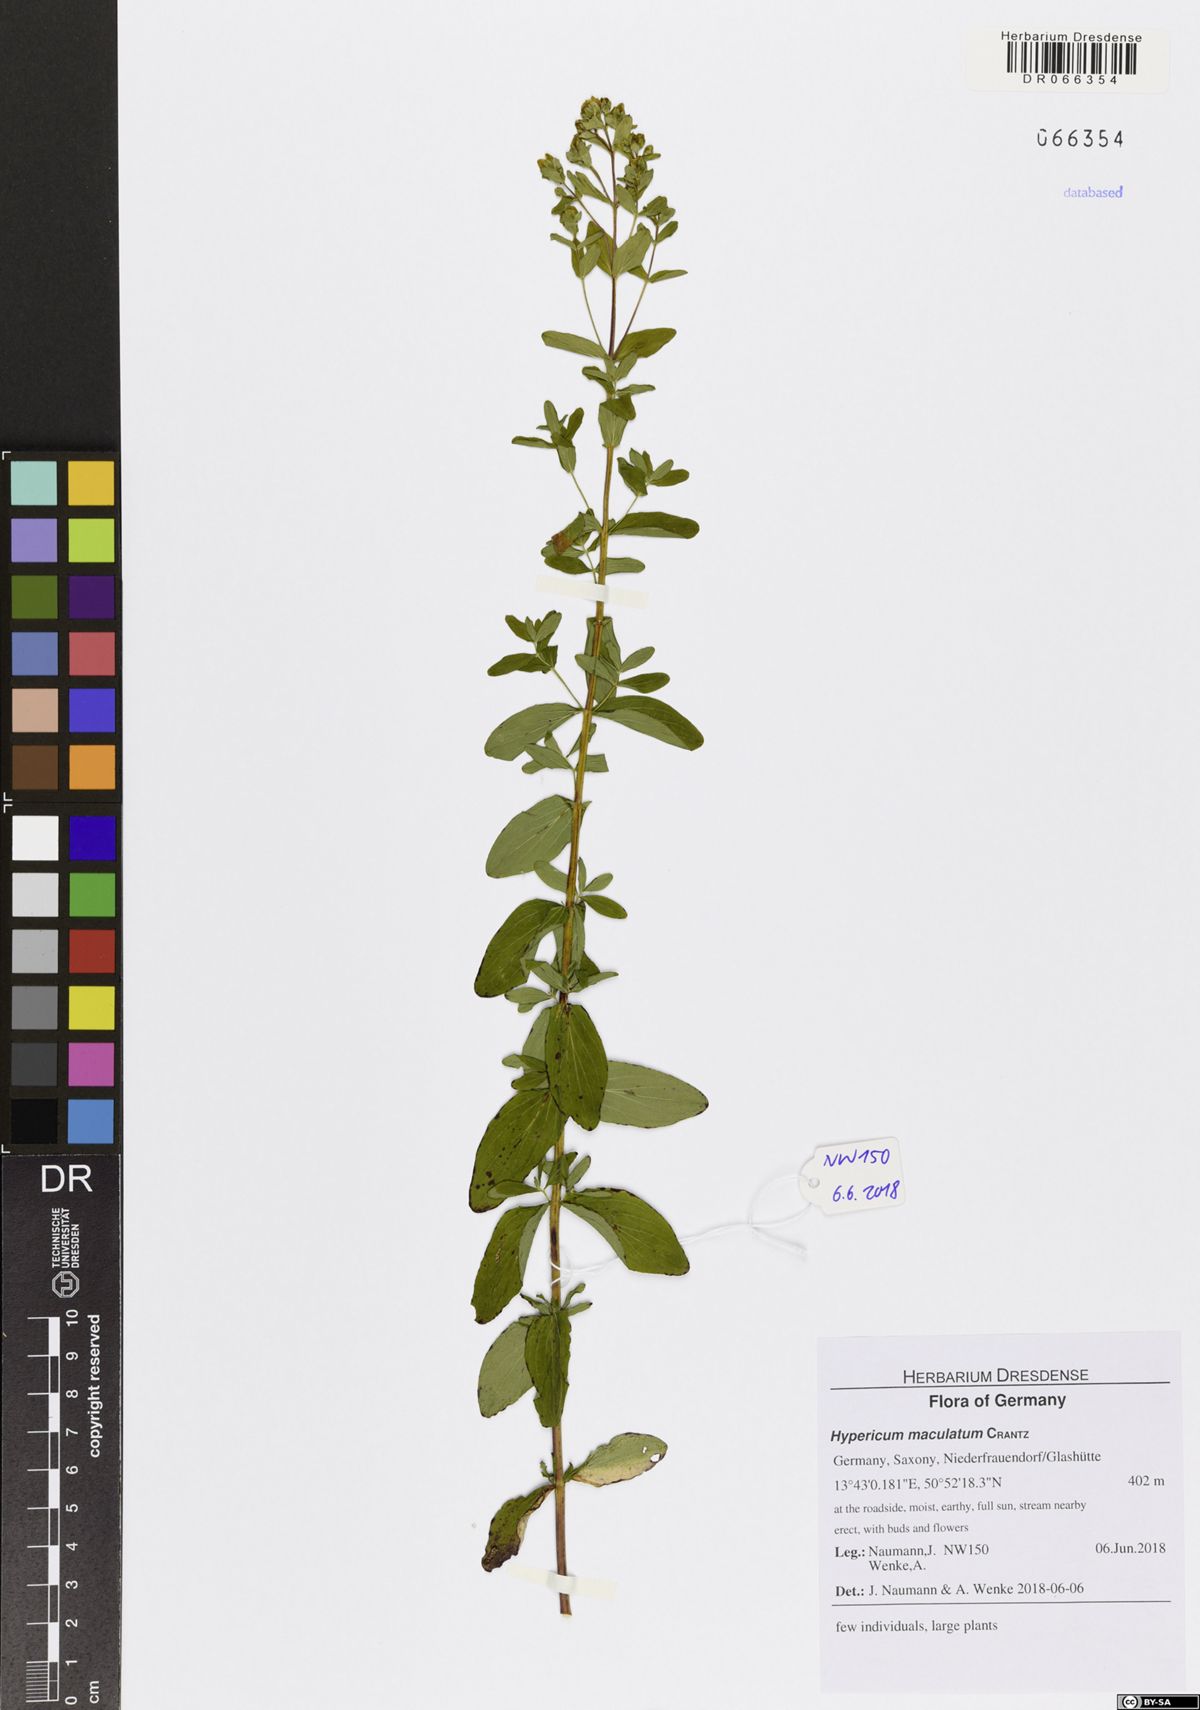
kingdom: Plantae
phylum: Tracheophyta
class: Magnoliopsida
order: Malpighiales
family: Hypericaceae
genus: Hypericum
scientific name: Hypericum maculatum
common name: Imperforate st. john's-wort
